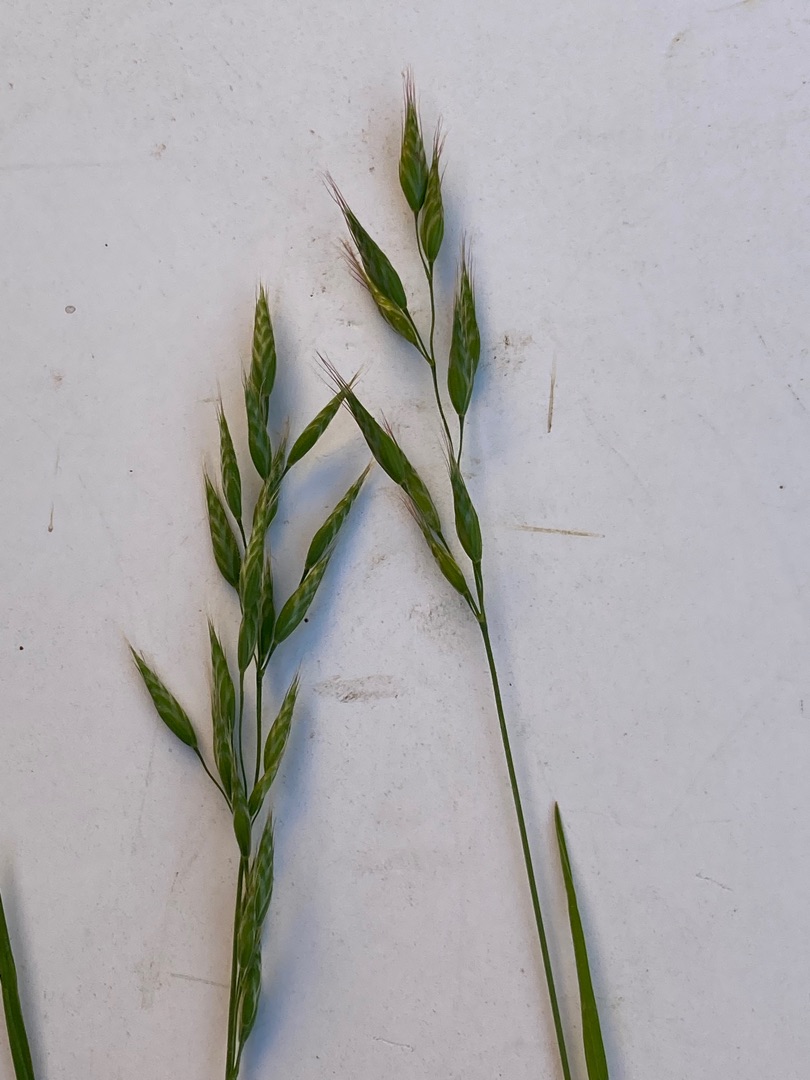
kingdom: Plantae
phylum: Tracheophyta
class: Liliopsida
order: Poales
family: Poaceae
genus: Bromus
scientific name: Bromus hordeaceus
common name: Blød hejre
